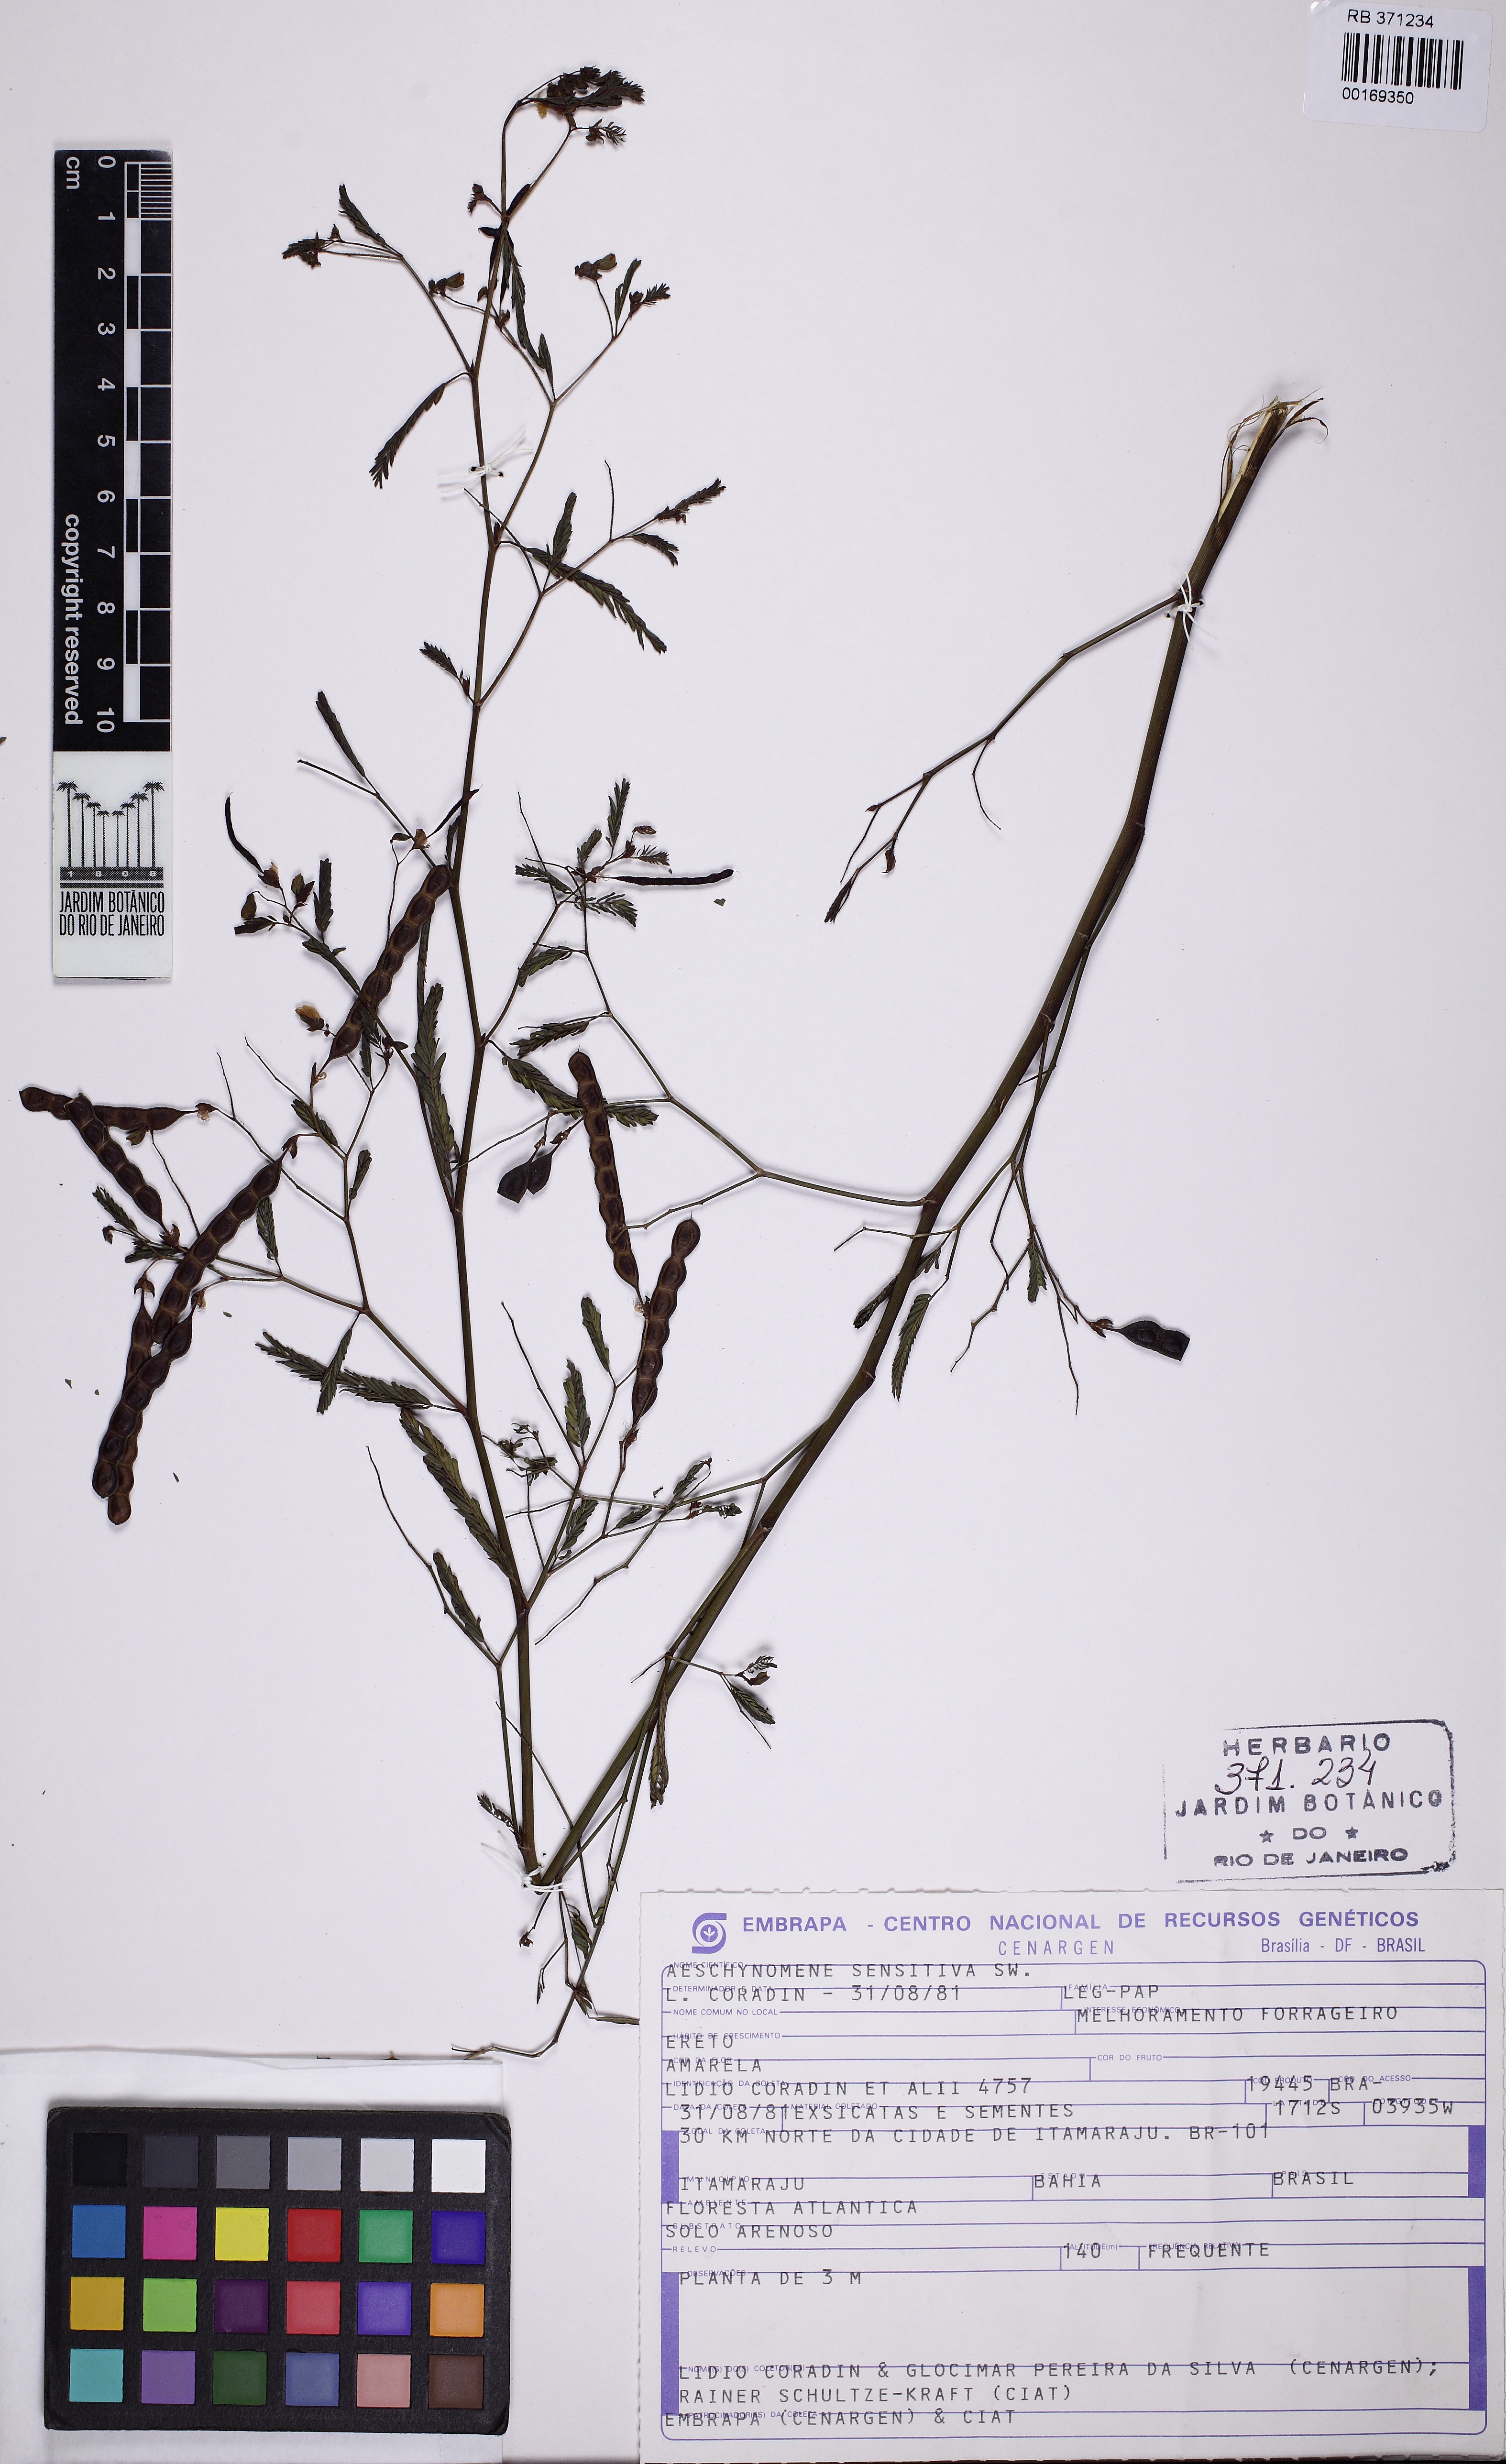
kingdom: Plantae
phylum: Tracheophyta
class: Magnoliopsida
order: Fabales
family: Fabaceae
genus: Aeschynomene
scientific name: Aeschynomene sensitiva
